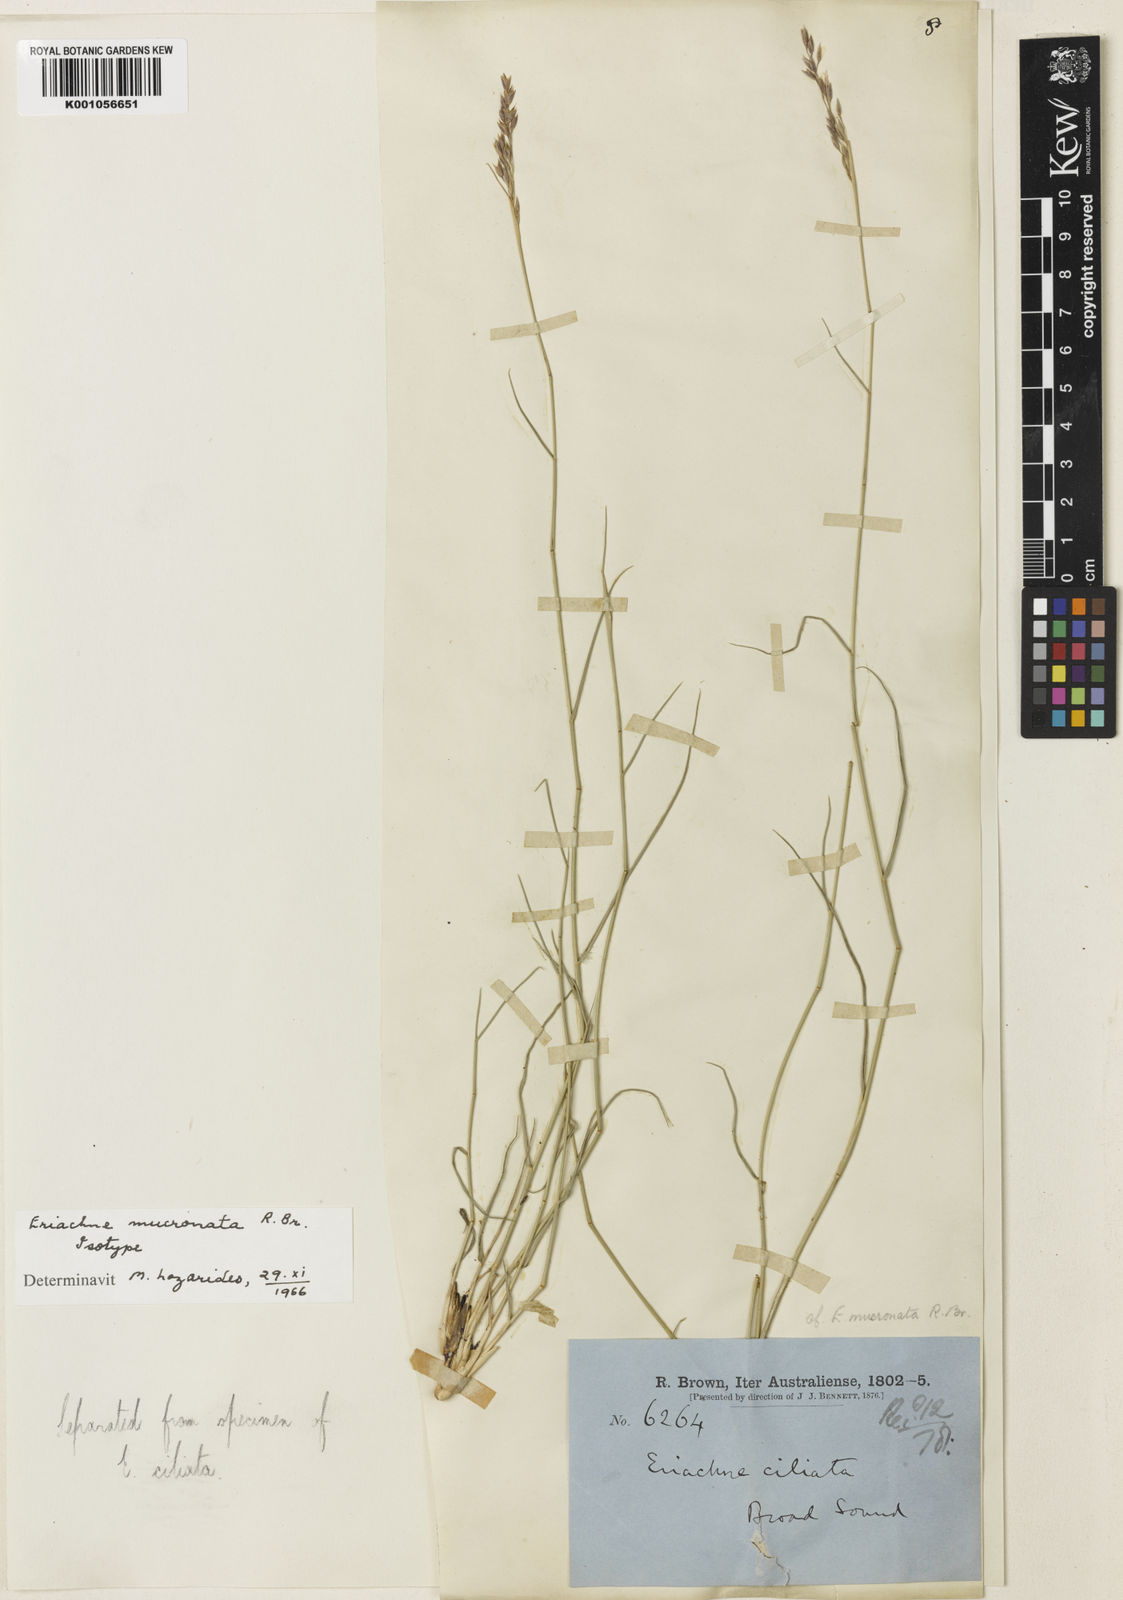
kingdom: Plantae
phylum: Tracheophyta
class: Liliopsida
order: Poales
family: Poaceae
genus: Eriachne
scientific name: Eriachne mucronata
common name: Mountain wanderrie grass
